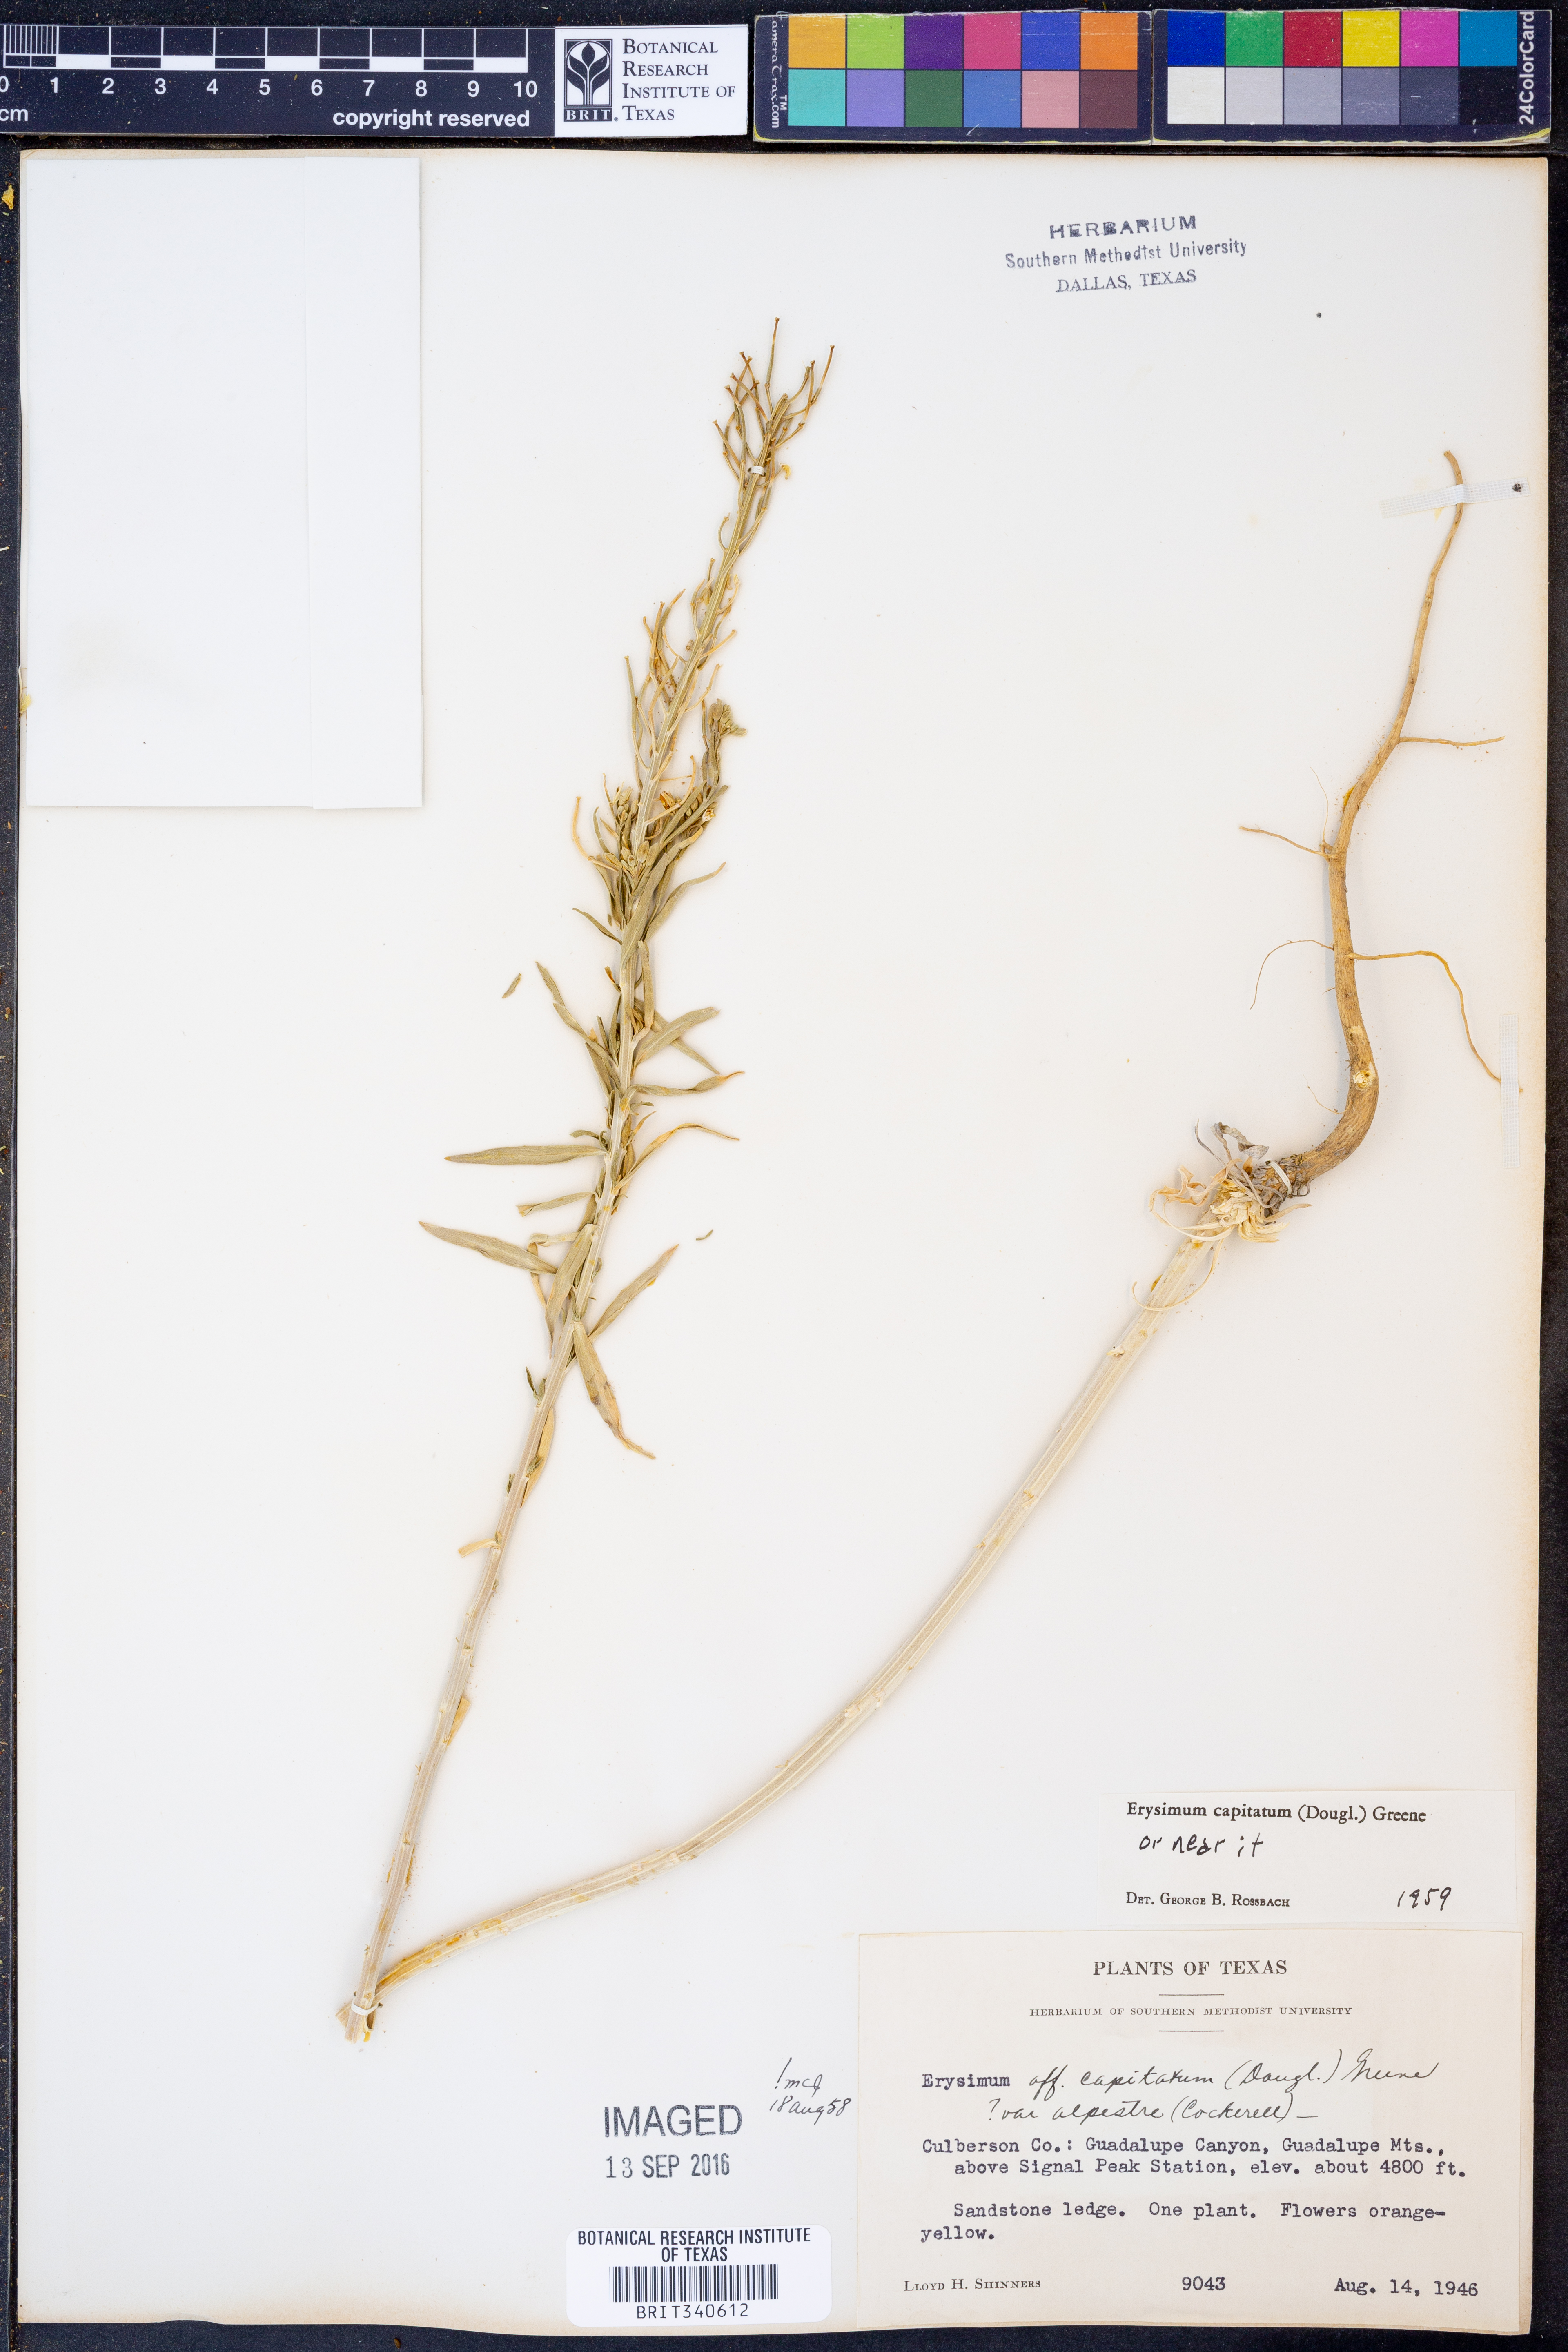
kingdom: Plantae
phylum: Tracheophyta
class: Magnoliopsida
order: Brassicales
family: Brassicaceae
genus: Erysimum
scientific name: Erysimum capitatum
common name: Western wallflower
